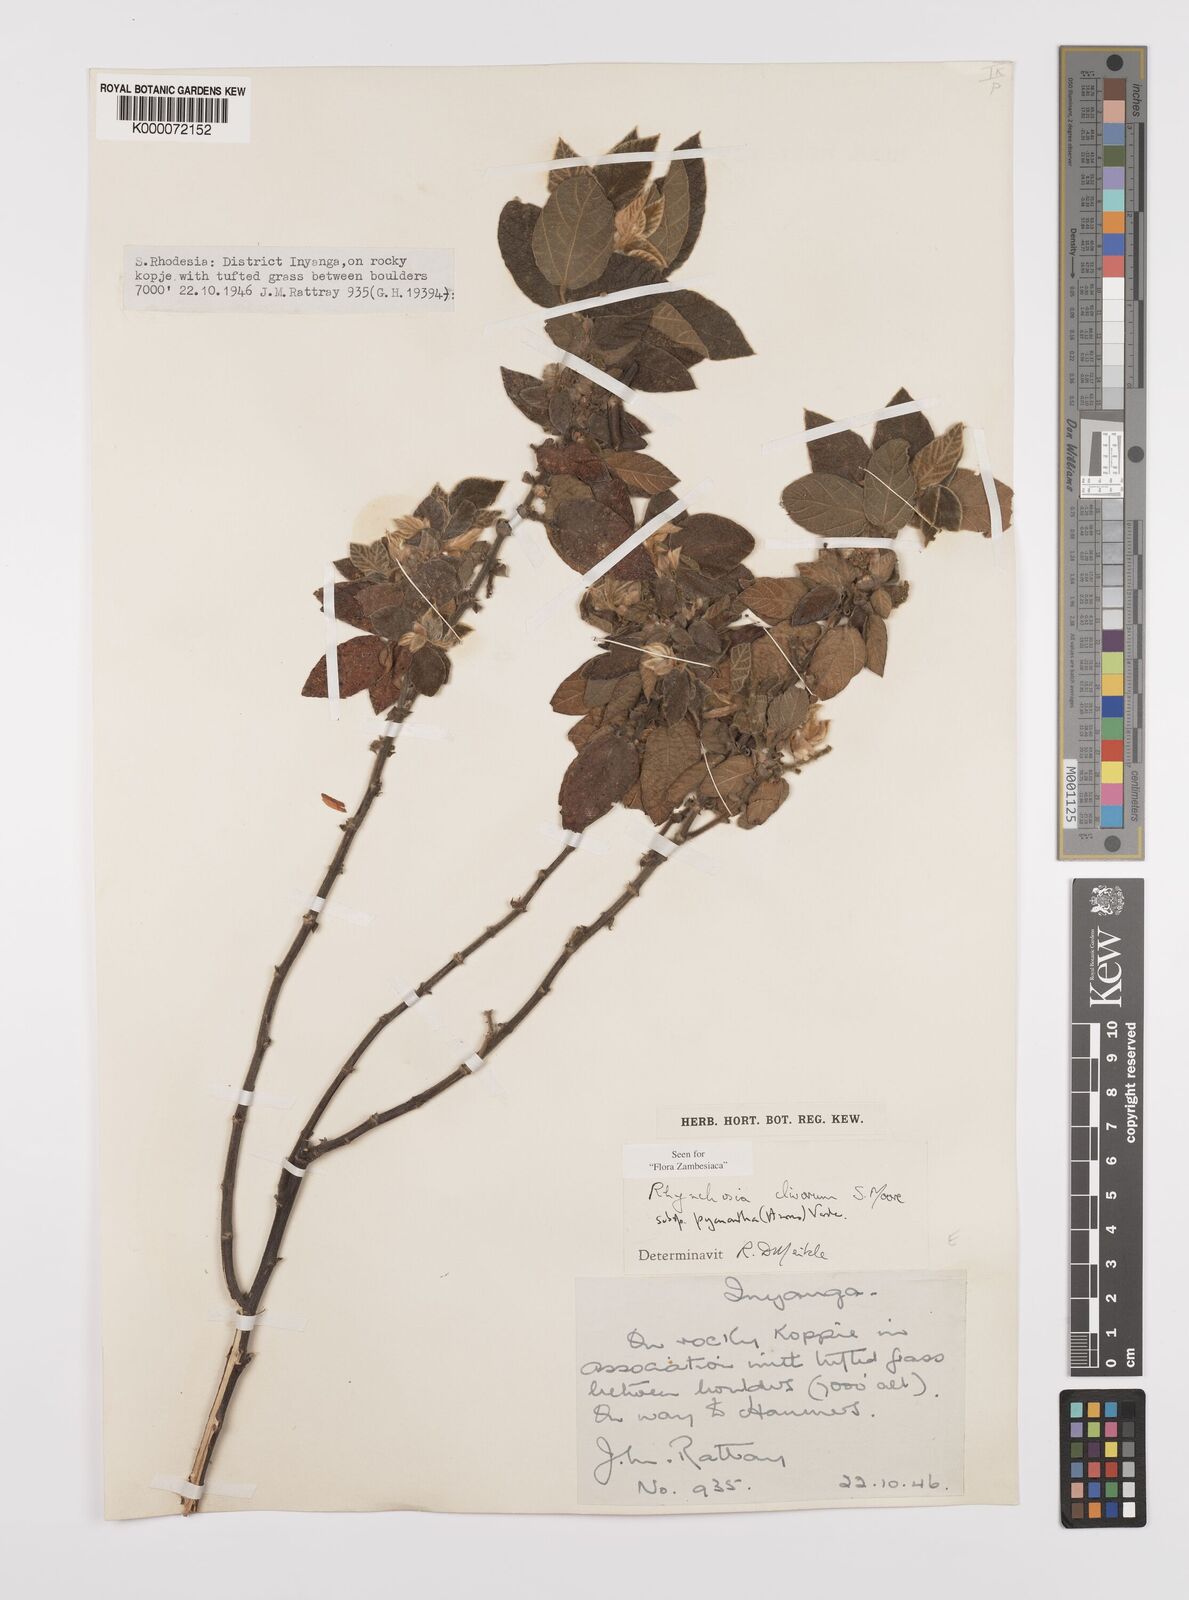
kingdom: Plantae
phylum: Tracheophyta
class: Magnoliopsida
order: Fabales
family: Fabaceae
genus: Rhynchosia
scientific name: Rhynchosia clivorum
